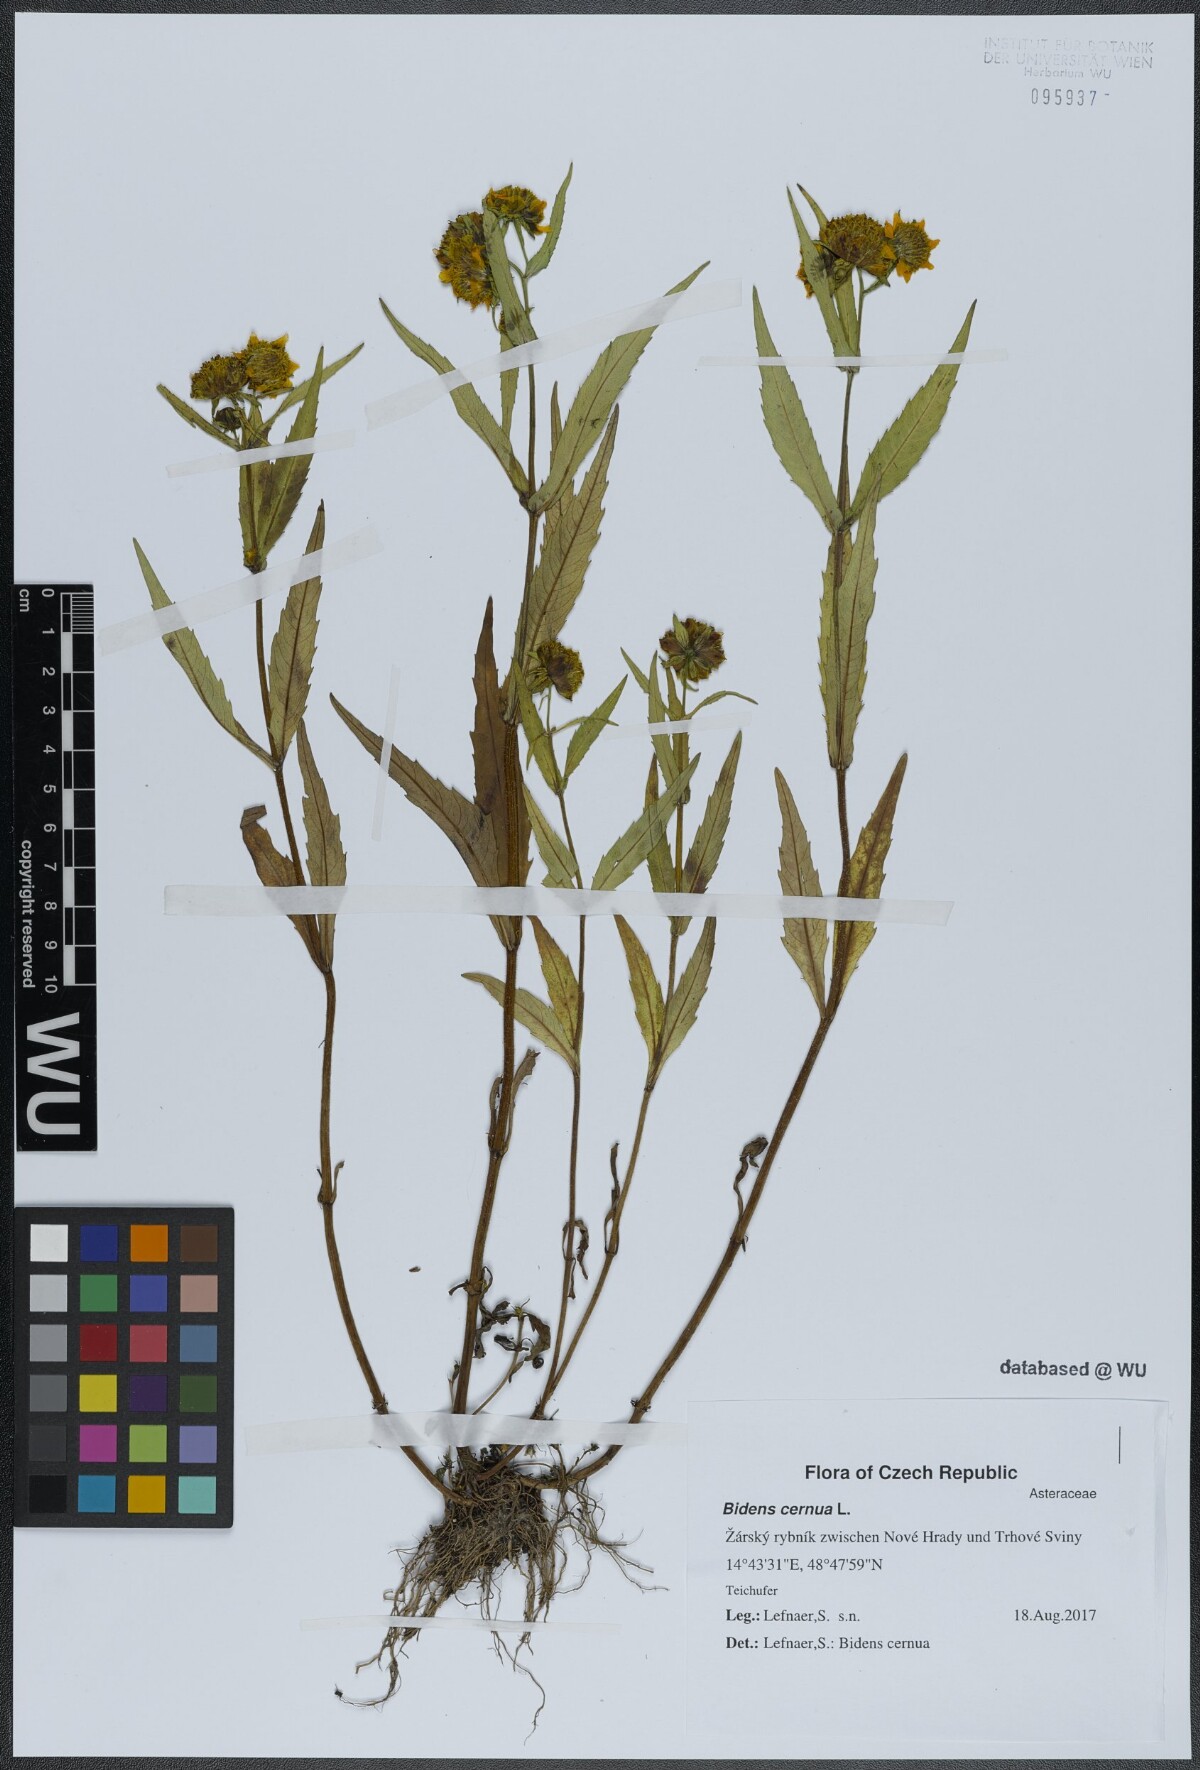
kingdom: Plantae
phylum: Tracheophyta
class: Magnoliopsida
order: Asterales
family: Asteraceae
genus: Bidens
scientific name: Bidens cernua
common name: Nodding bur-marigold
